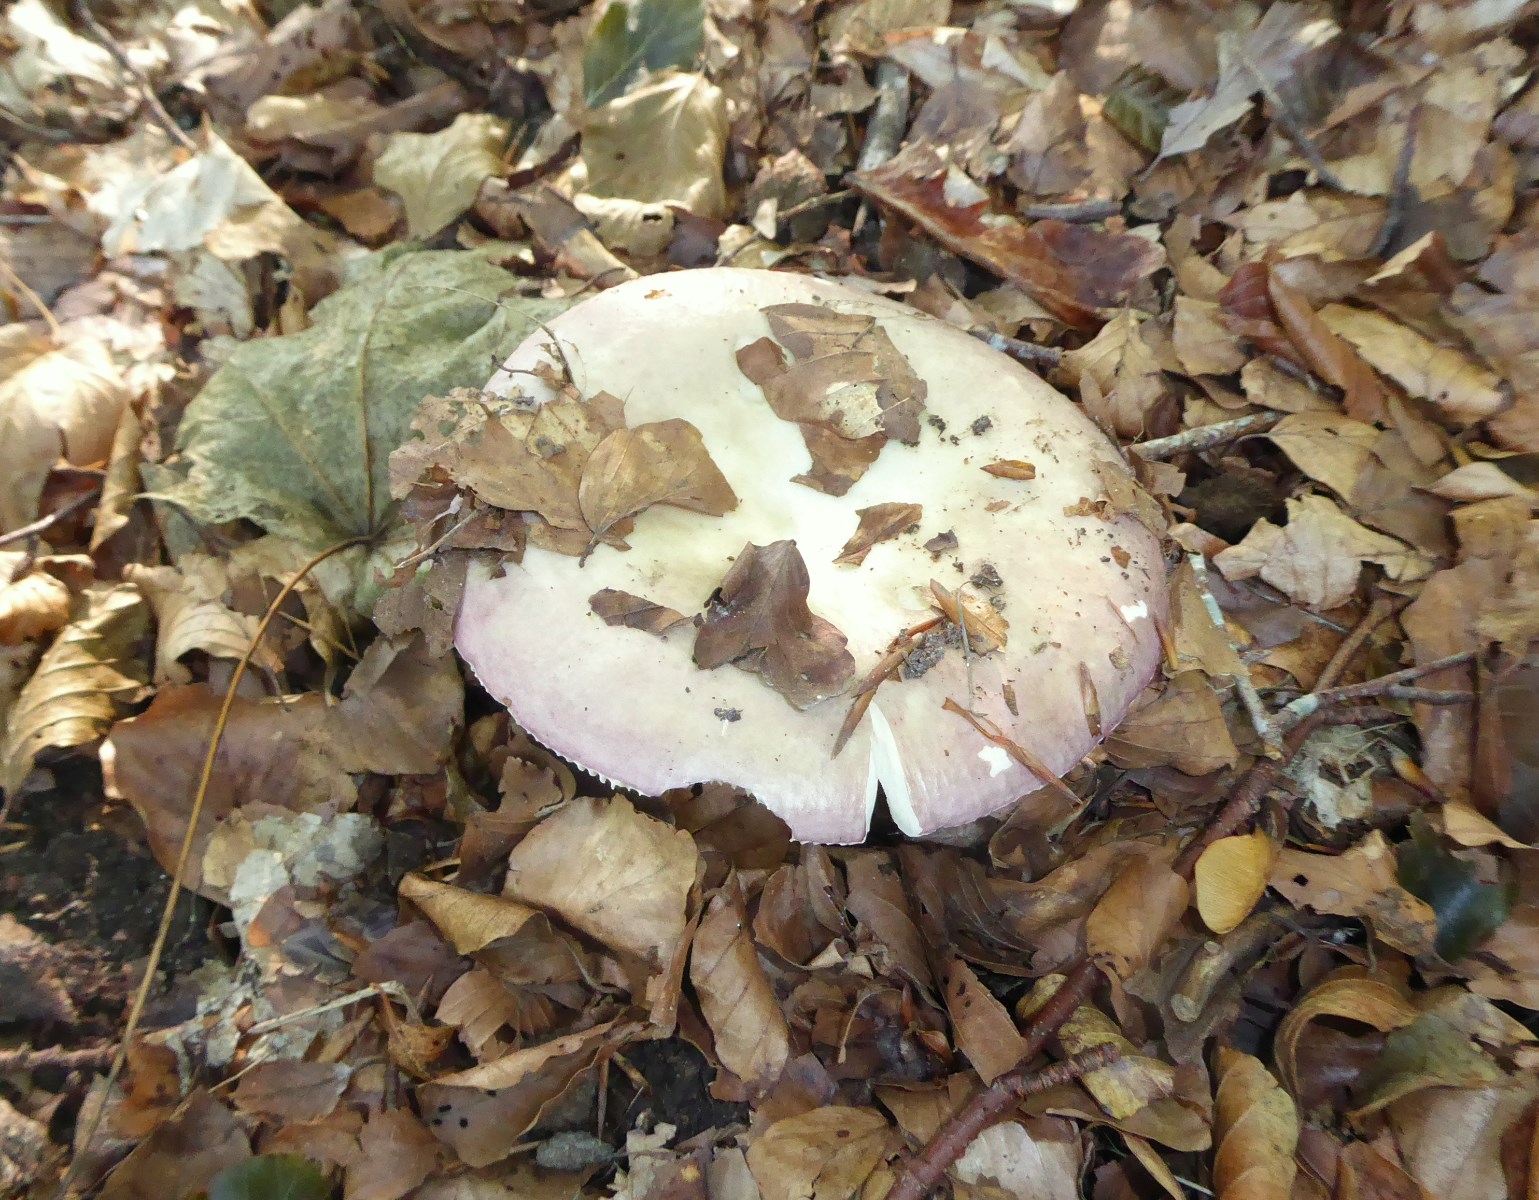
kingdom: Fungi
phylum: Basidiomycota
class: Agaricomycetes
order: Russulales
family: Russulaceae
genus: Russula
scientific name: Russula
